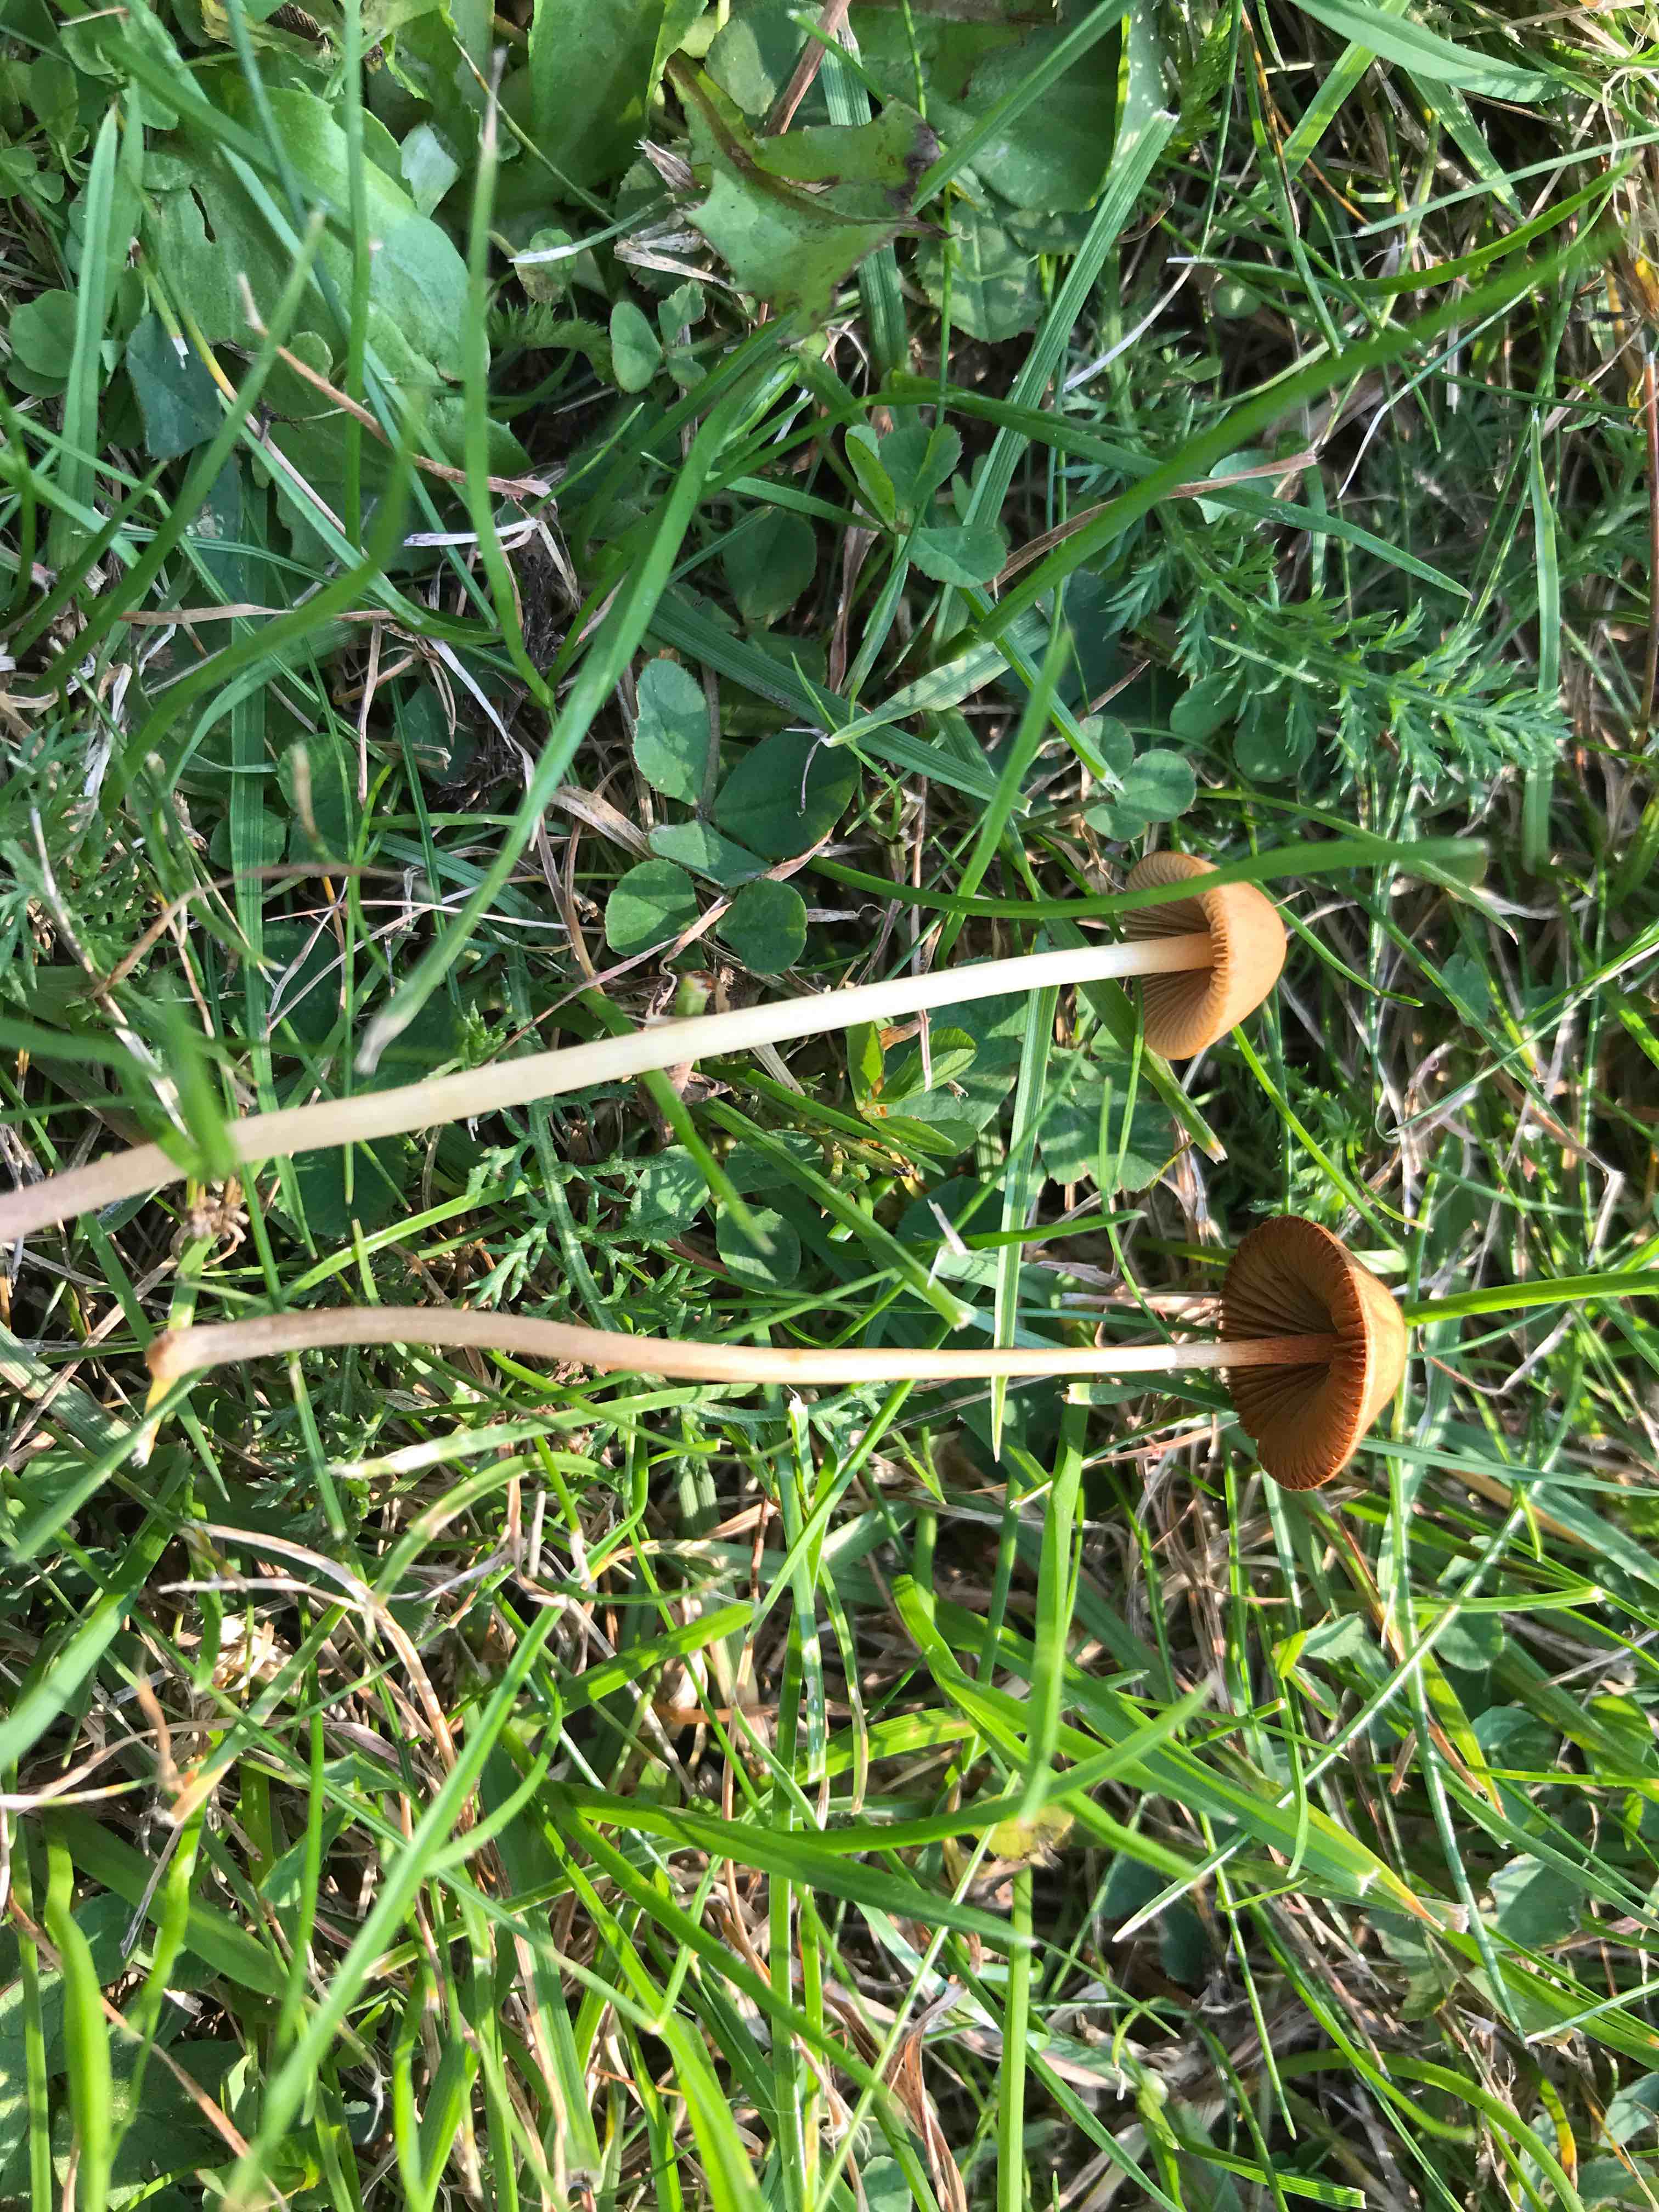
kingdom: Fungi
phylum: Basidiomycota
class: Agaricomycetes
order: Agaricales
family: Bolbitiaceae
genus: Conocybe
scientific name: Conocybe
